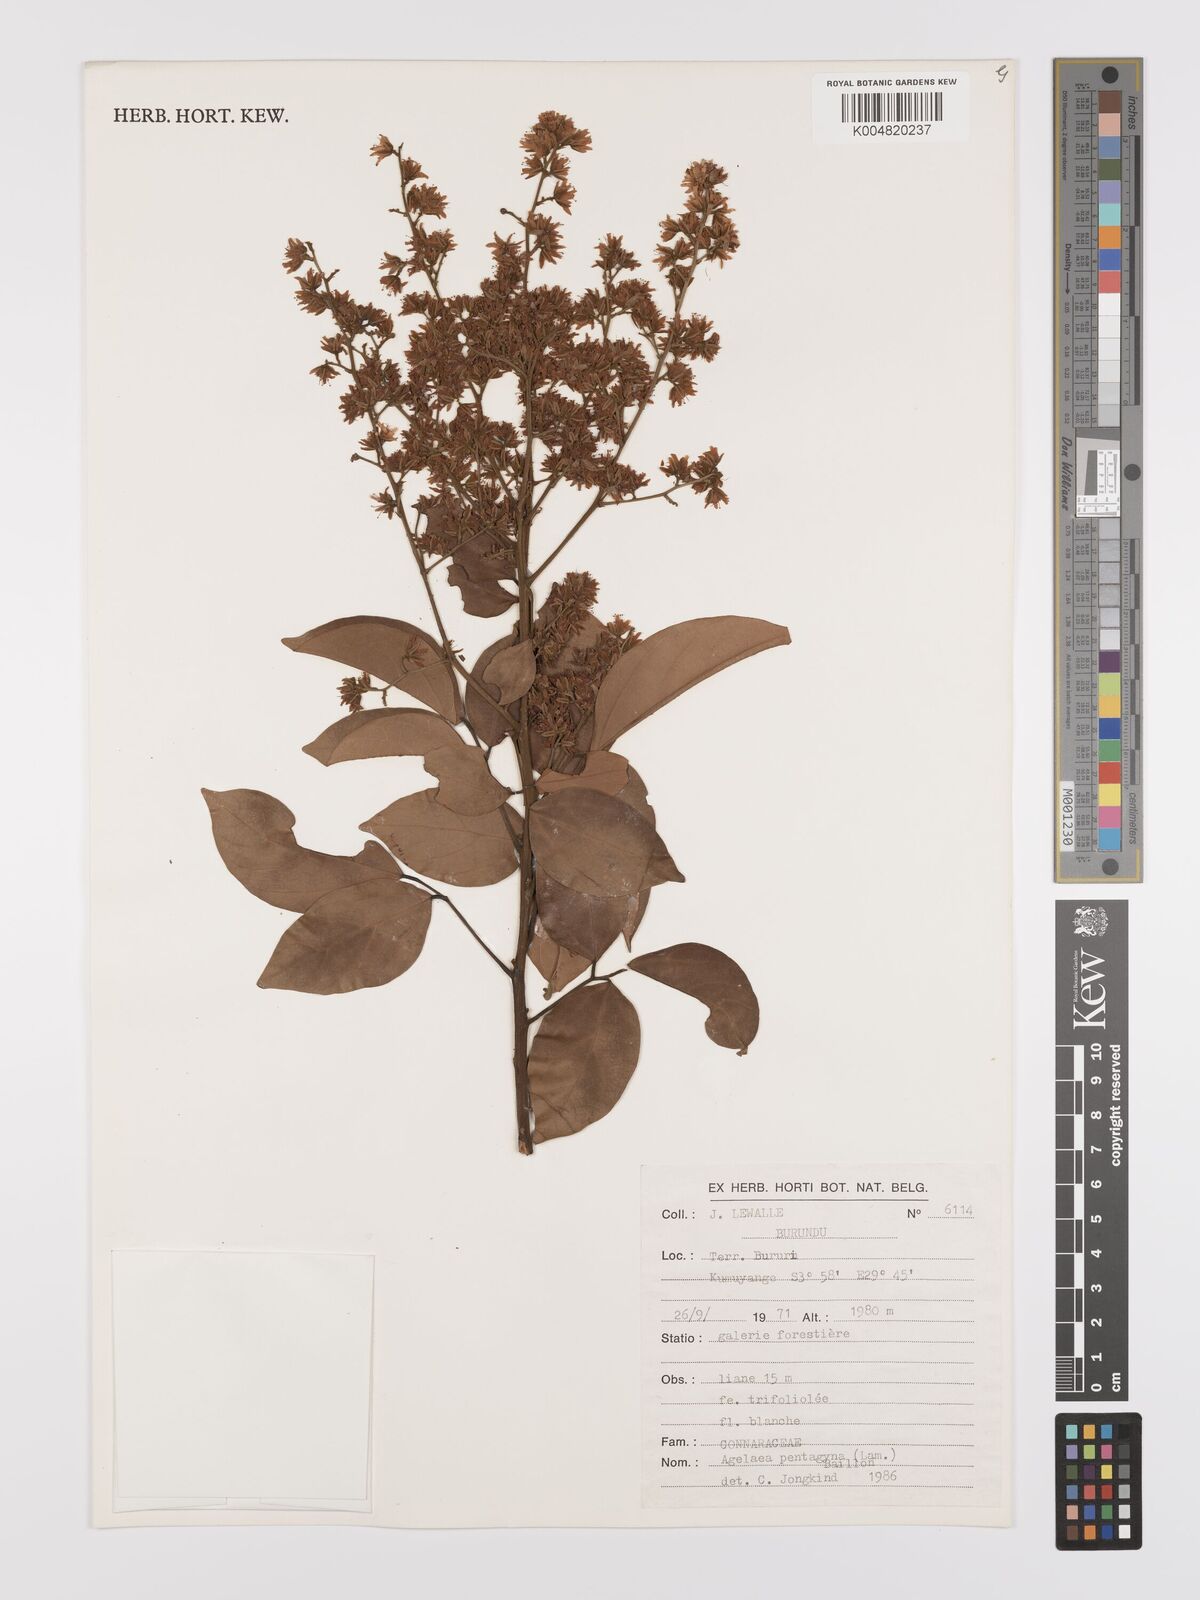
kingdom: Plantae
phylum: Tracheophyta
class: Magnoliopsida
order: Oxalidales
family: Connaraceae
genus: Agelaea
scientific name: Agelaea pentagyna
